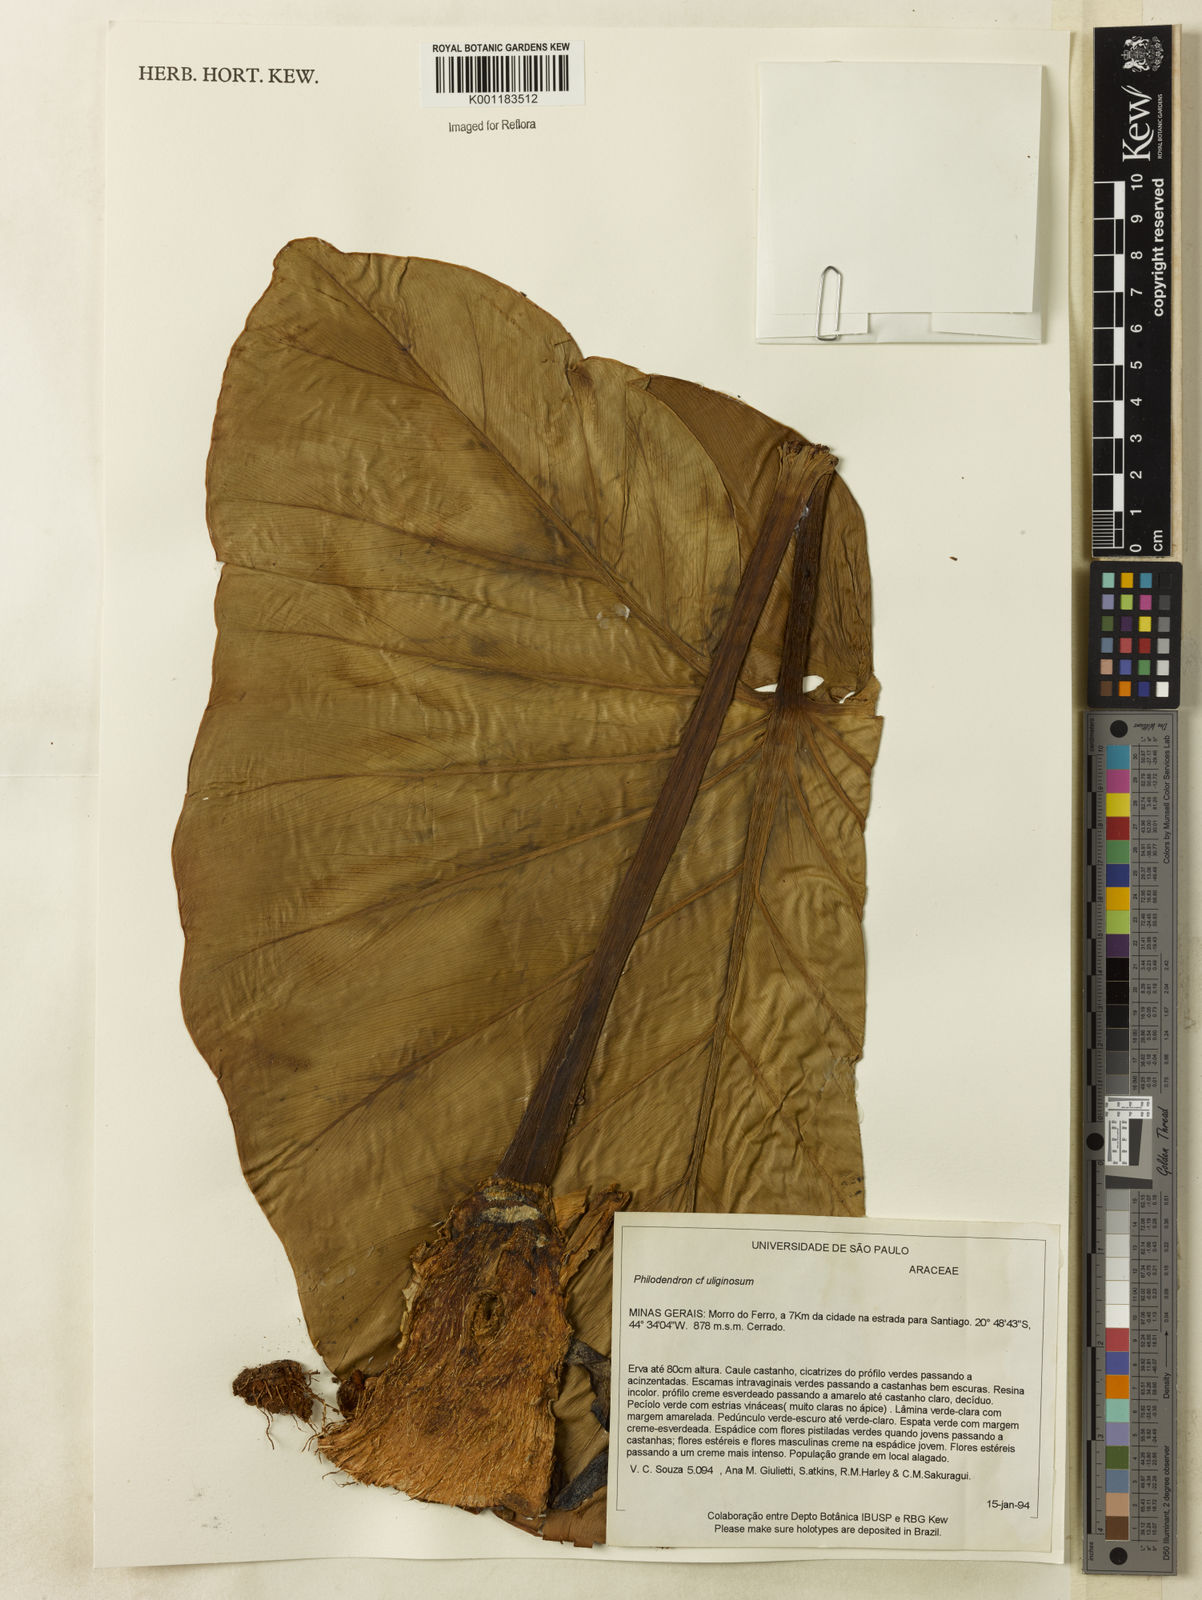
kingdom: Plantae
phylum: Tracheophyta
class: Liliopsida
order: Alismatales
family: Araceae
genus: Thaumatophyllum
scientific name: Thaumatophyllum uliginosum
